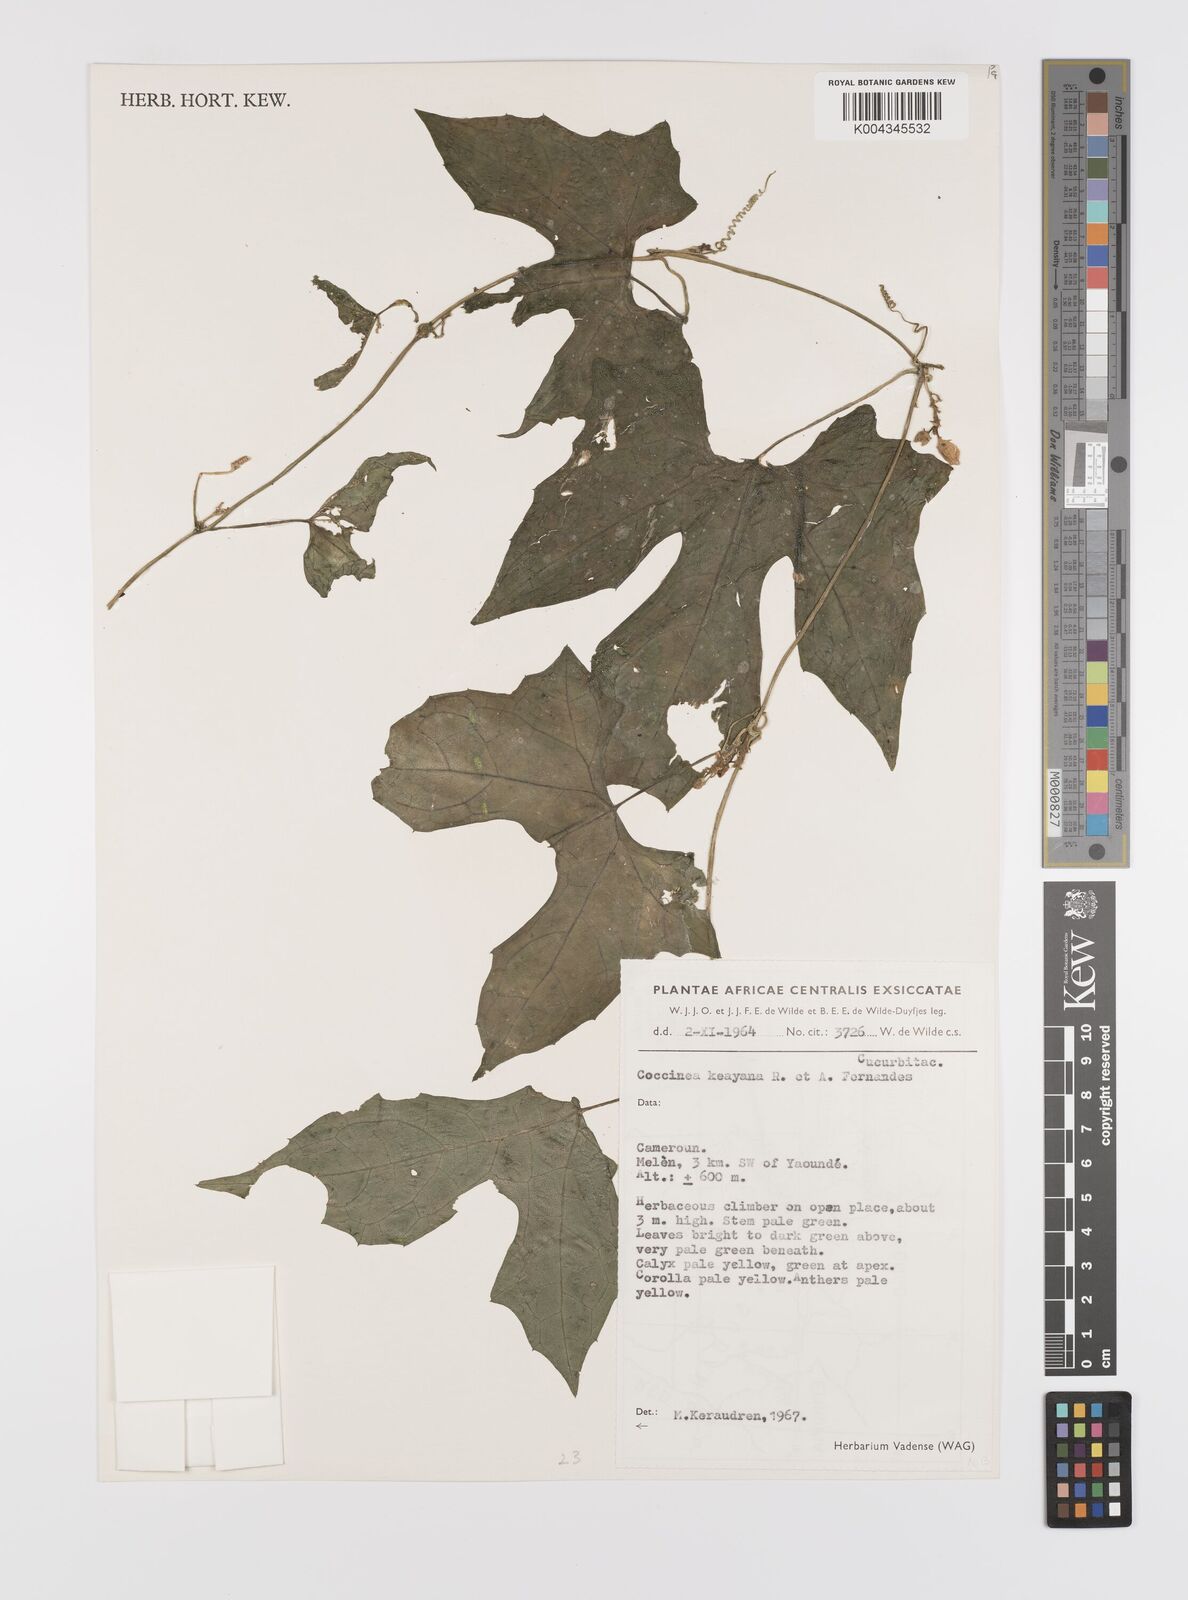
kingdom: Plantae
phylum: Tracheophyta
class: Magnoliopsida
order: Cucurbitales
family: Cucurbitaceae
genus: Coccinia
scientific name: Coccinia keayana
